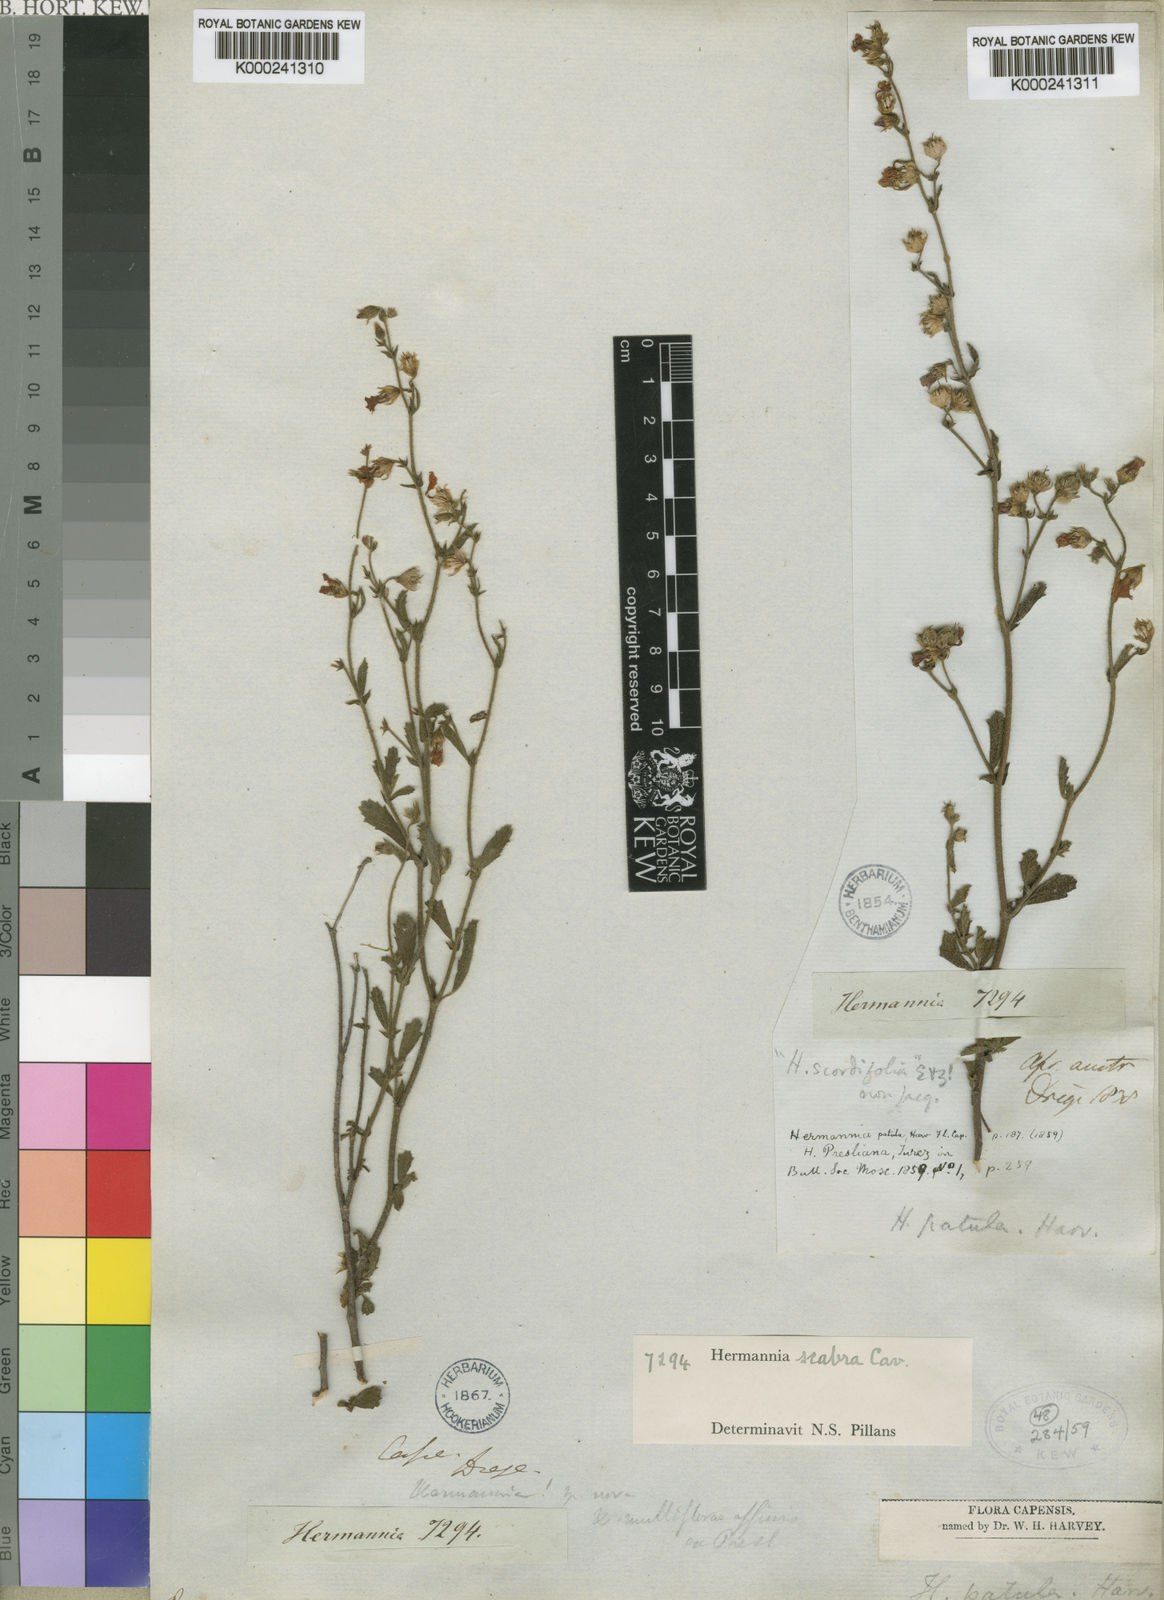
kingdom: Plantae
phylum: Tracheophyta
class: Magnoliopsida
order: Malvales
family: Malvaceae
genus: Hermannia
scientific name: Hermannia scabra
